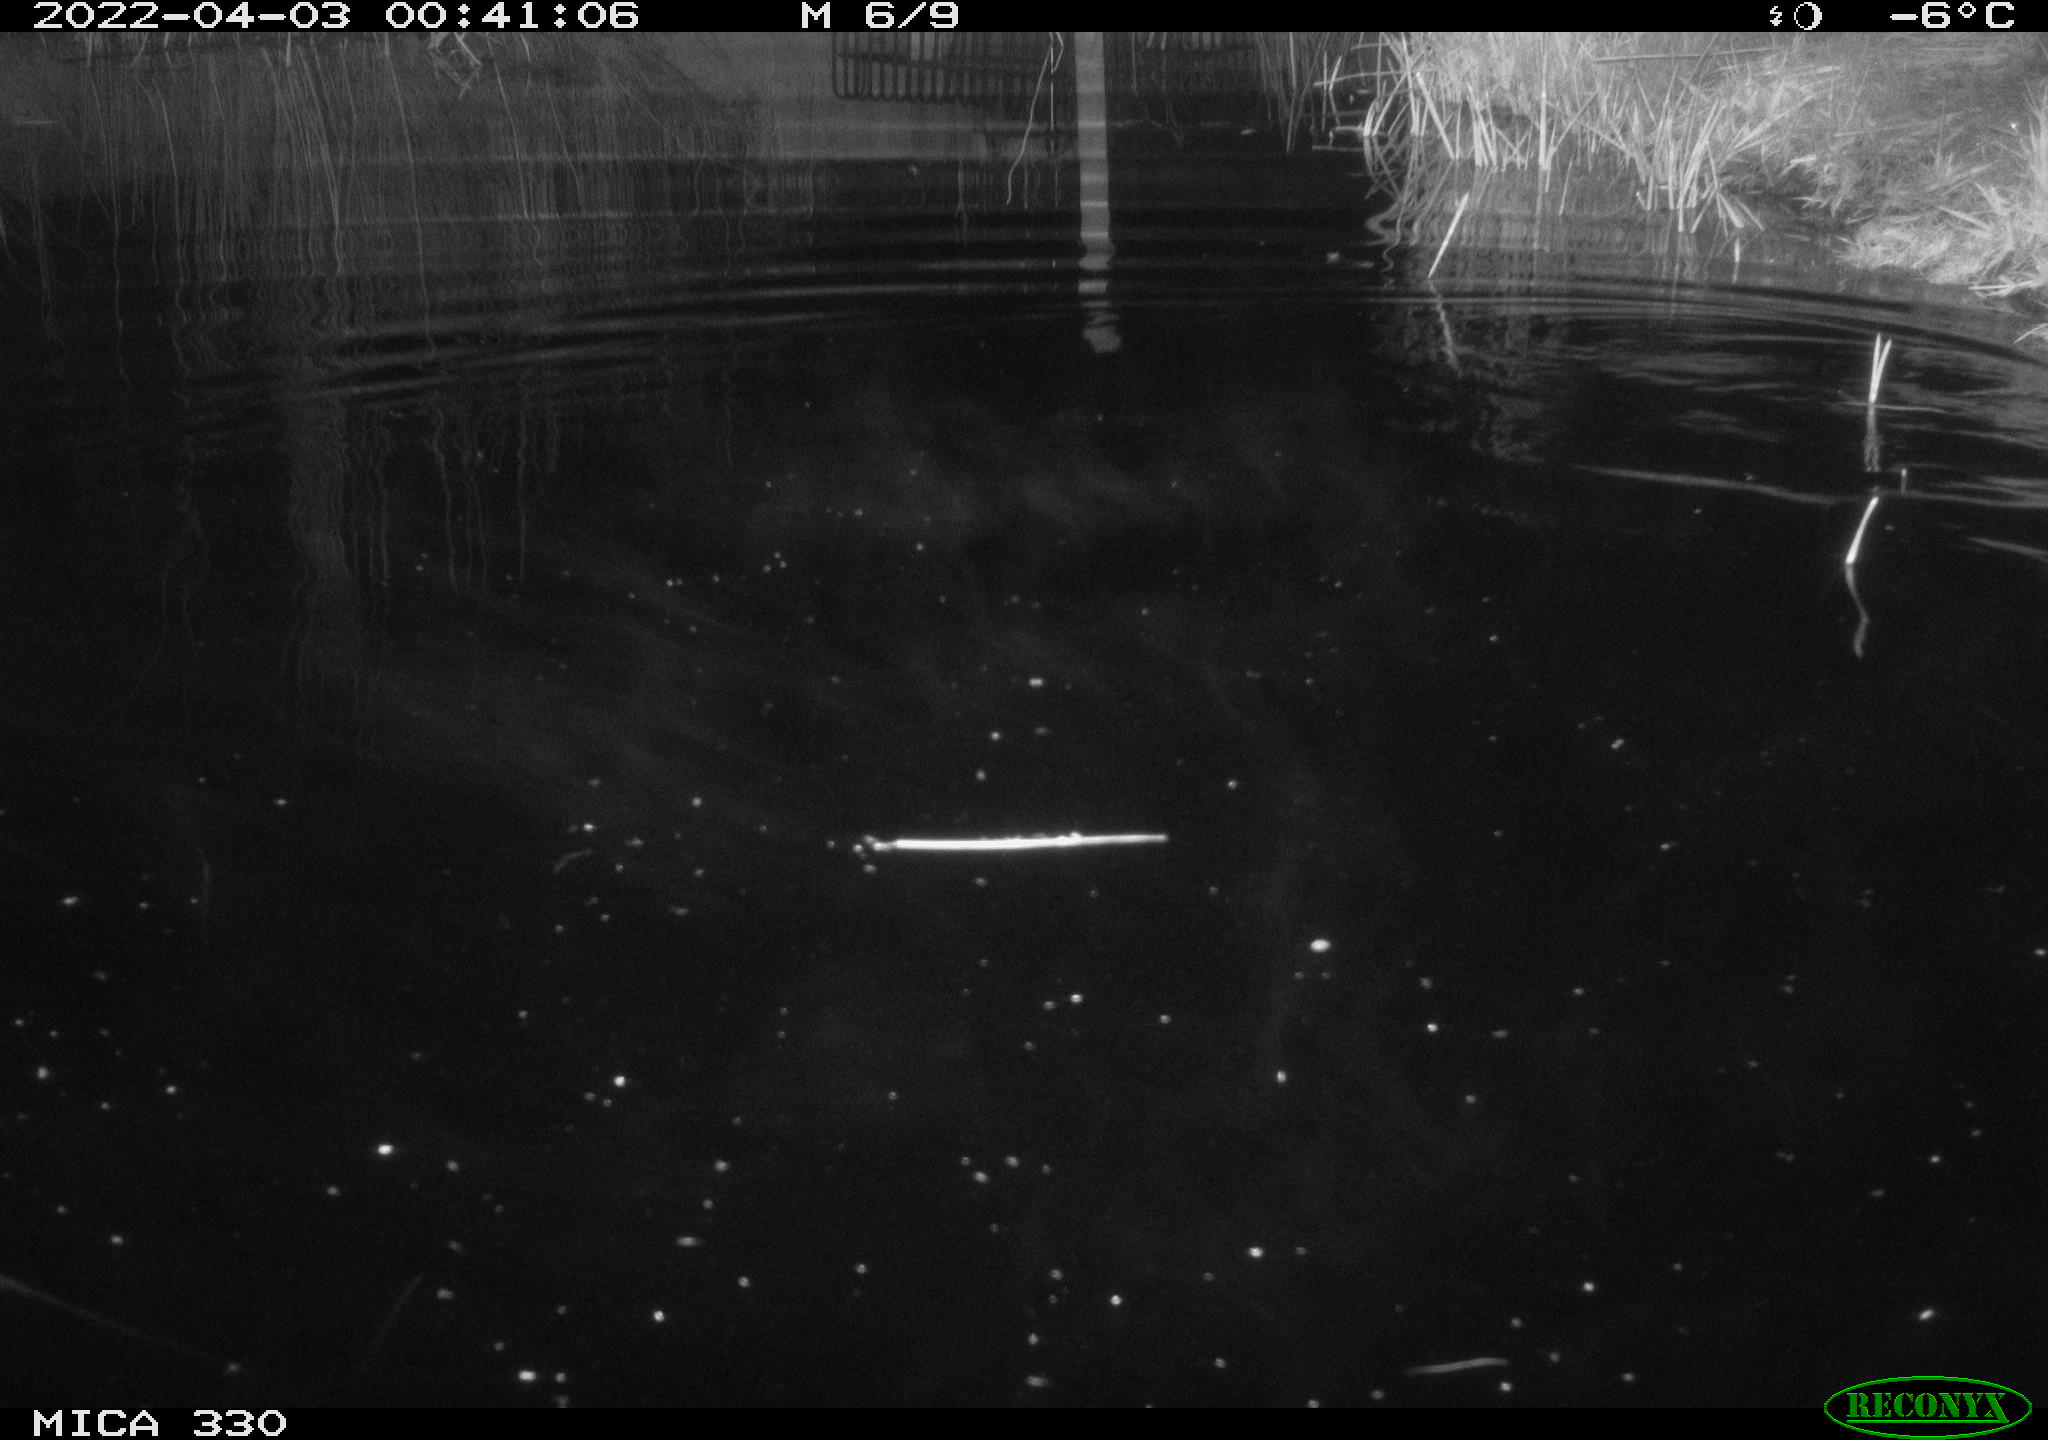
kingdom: Animalia
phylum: Chordata
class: Mammalia
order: Rodentia
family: Muridae
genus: Rattus
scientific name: Rattus norvegicus
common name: Brown rat
